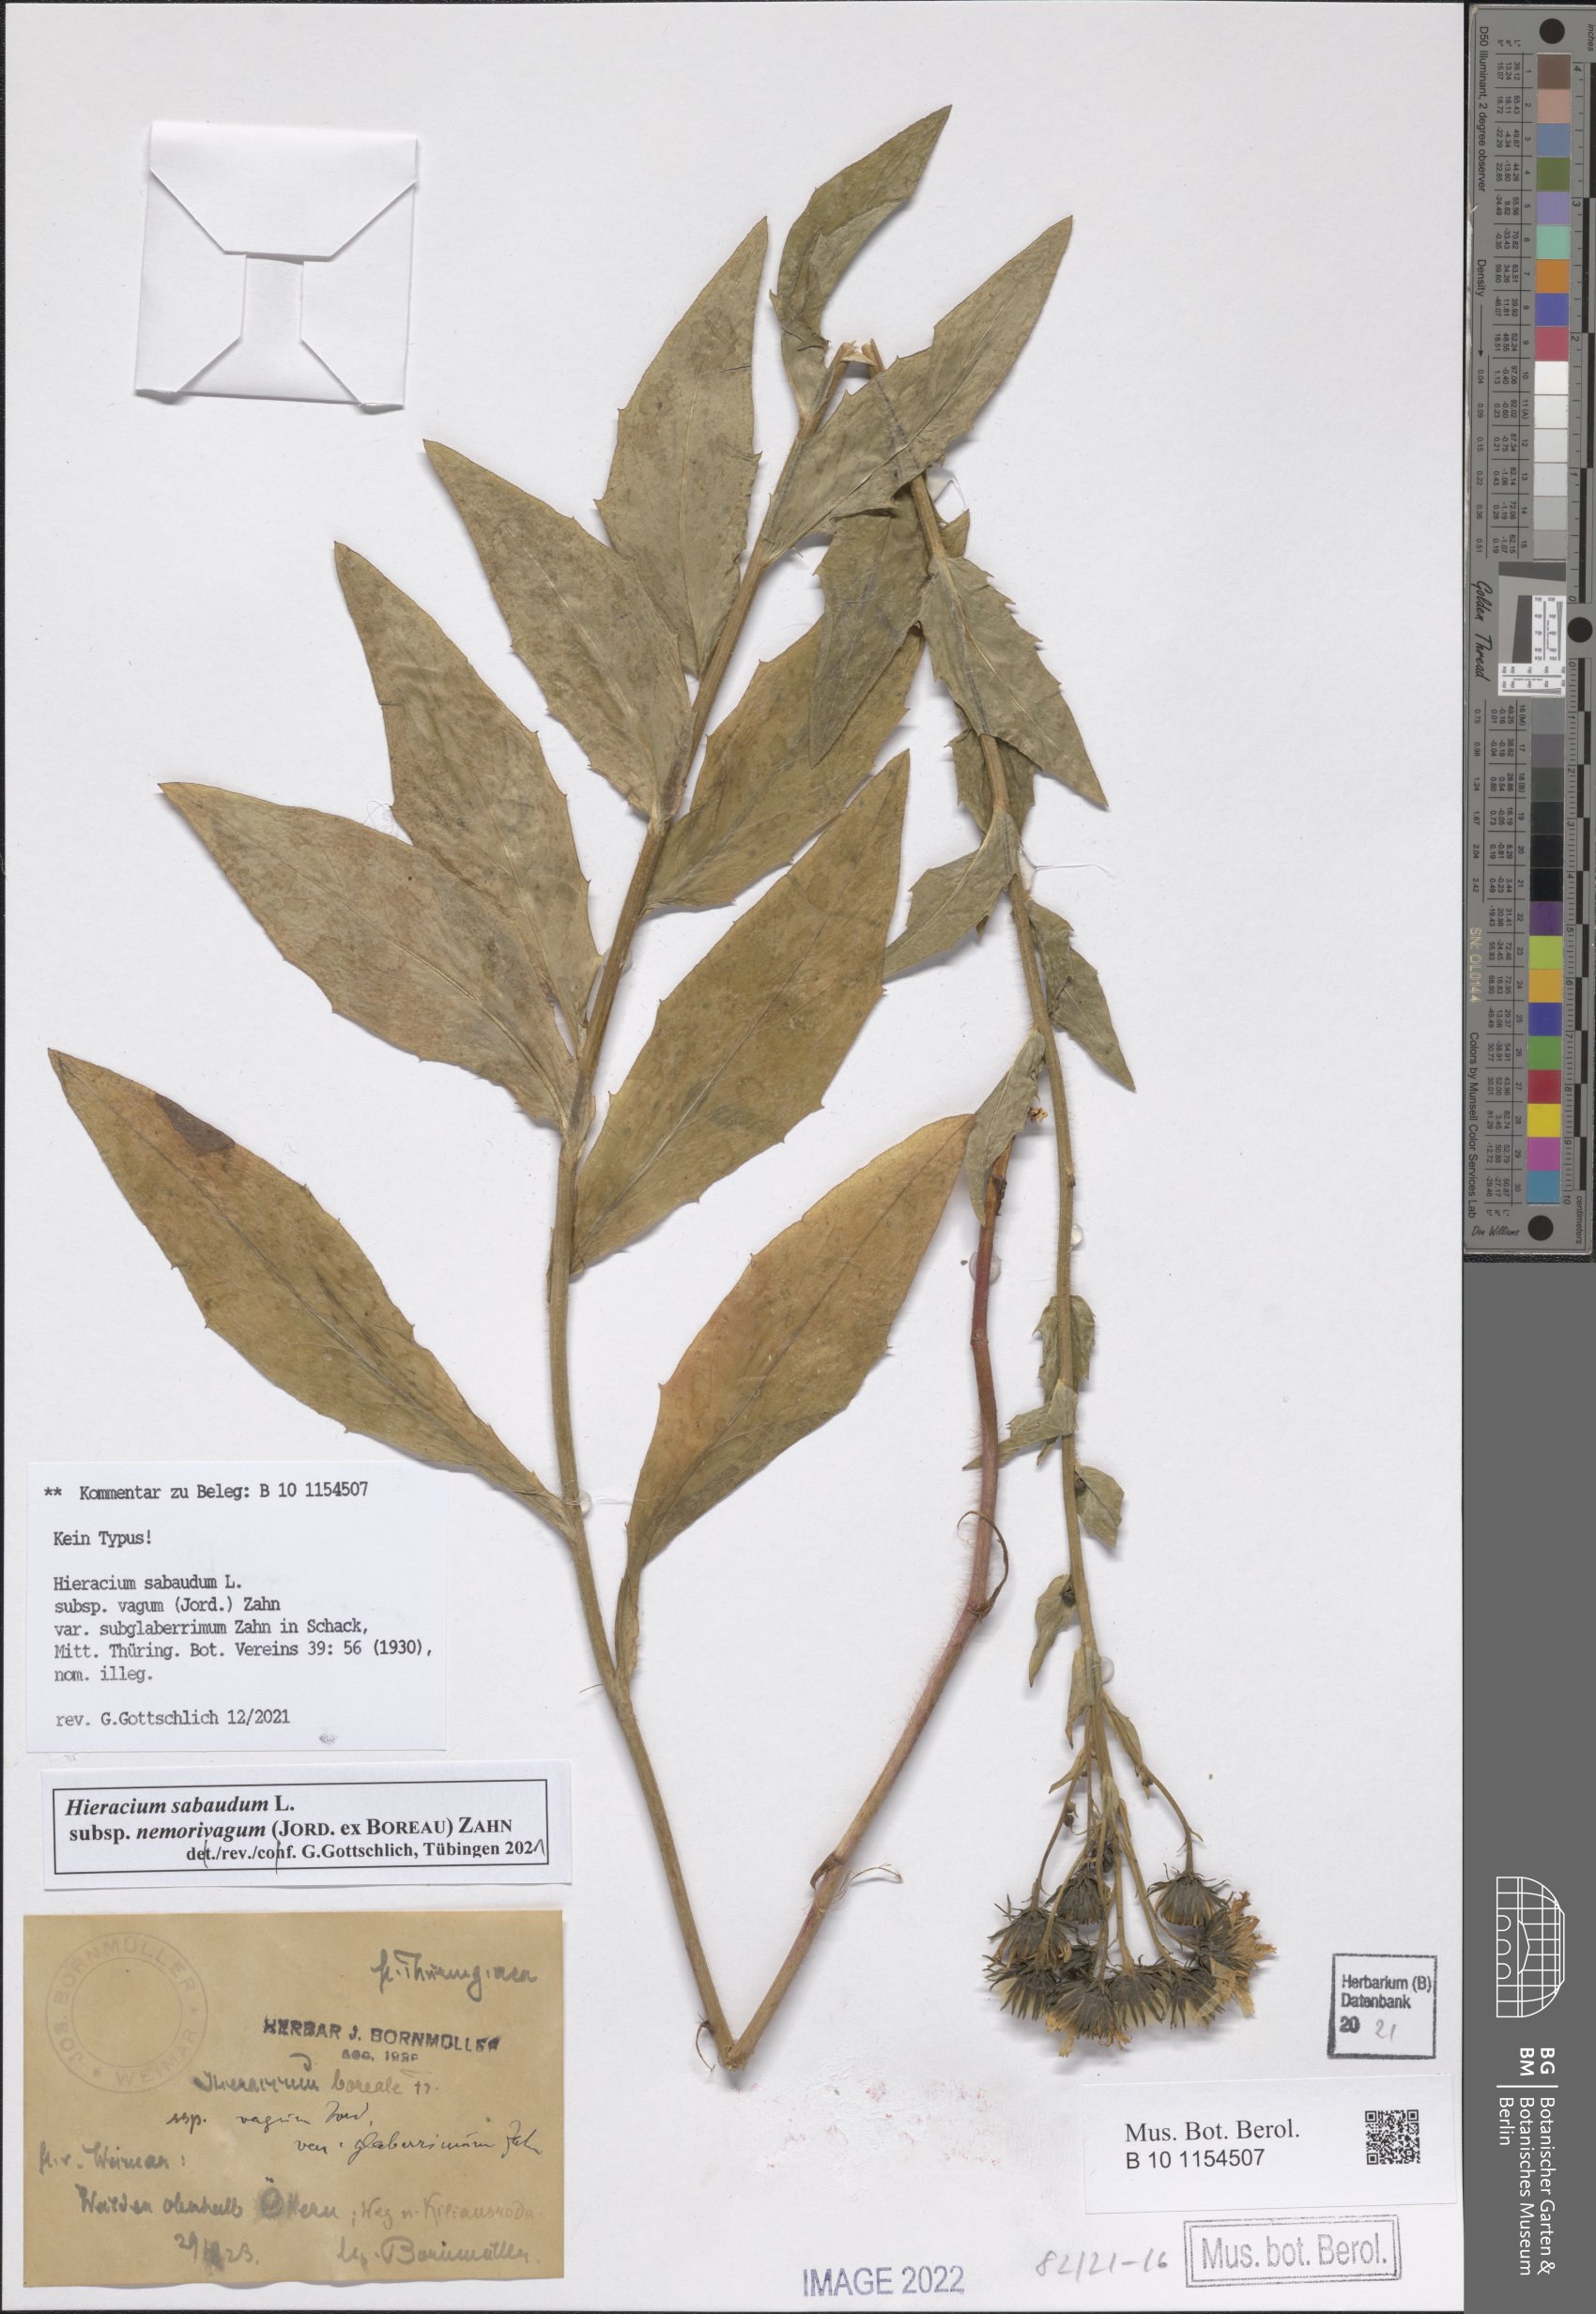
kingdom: Plantae
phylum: Tracheophyta
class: Magnoliopsida
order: Asterales
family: Asteraceae
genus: Hieracium
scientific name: Hieracium sabaudum
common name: New england hawkweed
